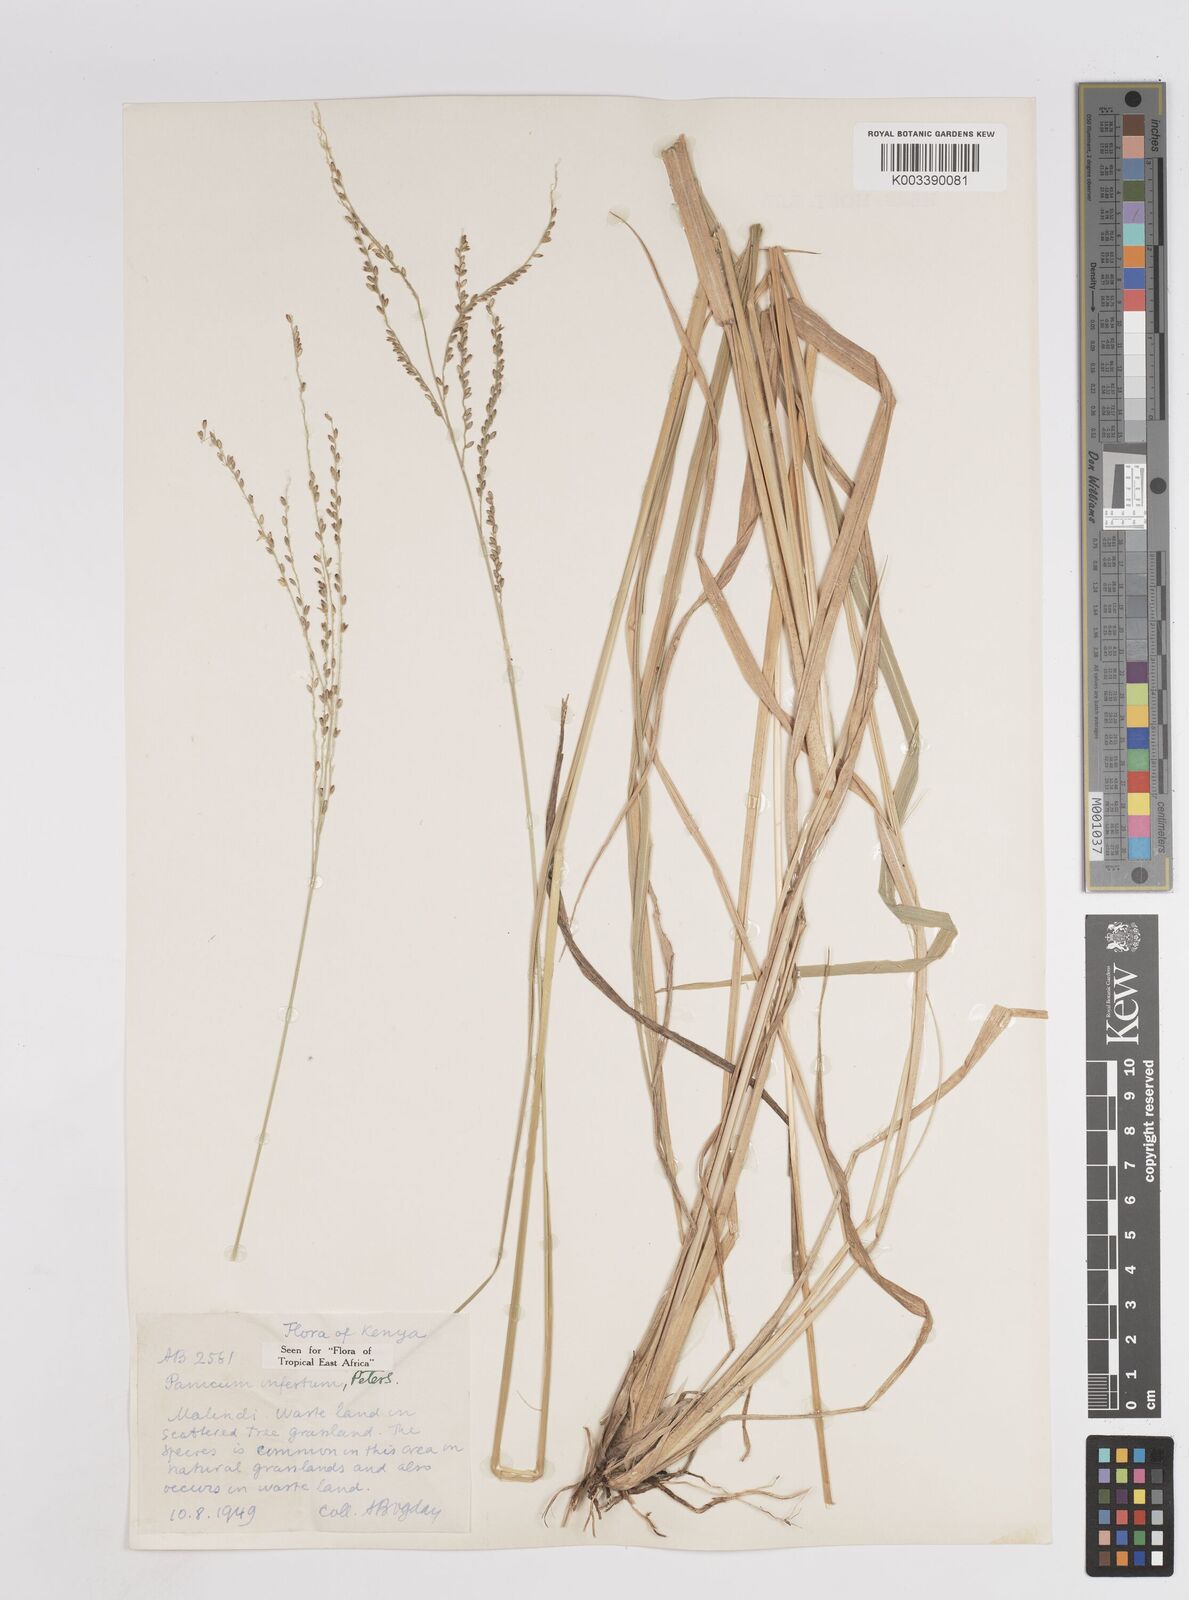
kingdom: Plantae
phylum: Tracheophyta
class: Liliopsida
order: Poales
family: Poaceae
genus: Megathyrsus
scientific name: Megathyrsus infestus
